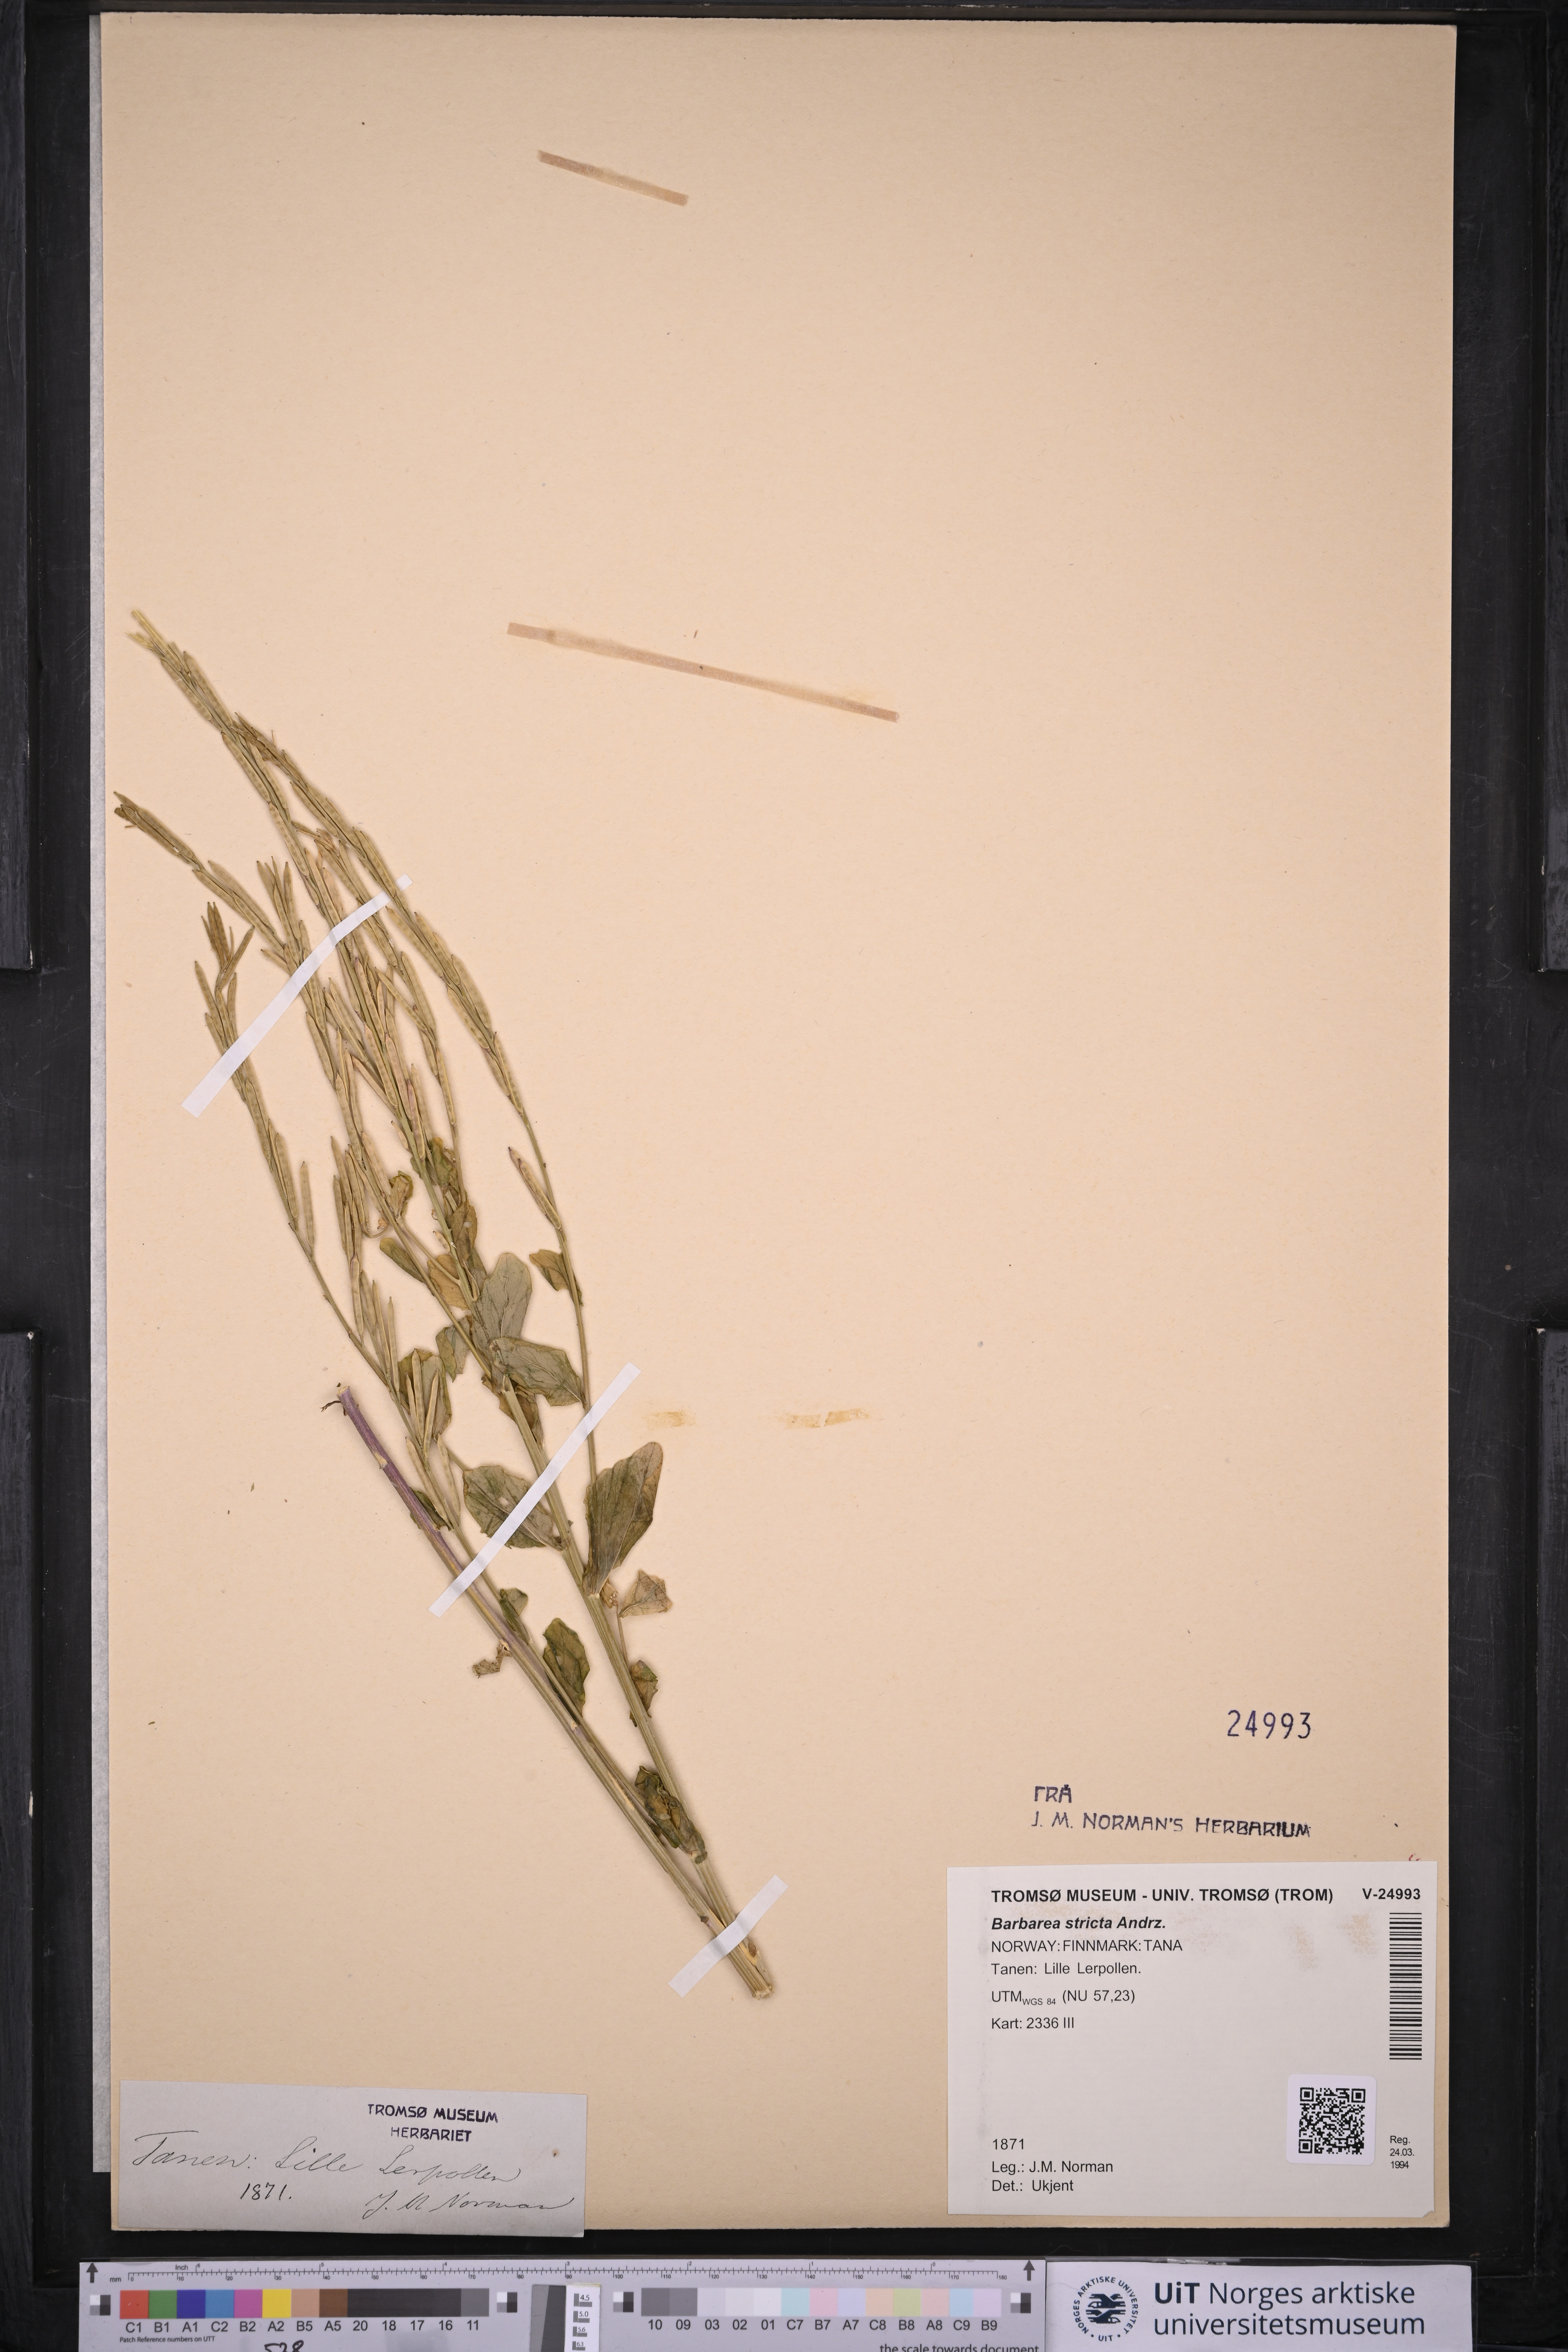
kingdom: Plantae
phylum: Tracheophyta
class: Magnoliopsida
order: Brassicales
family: Brassicaceae
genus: Barbarea
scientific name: Barbarea stricta
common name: Small-flowered winter-cress
